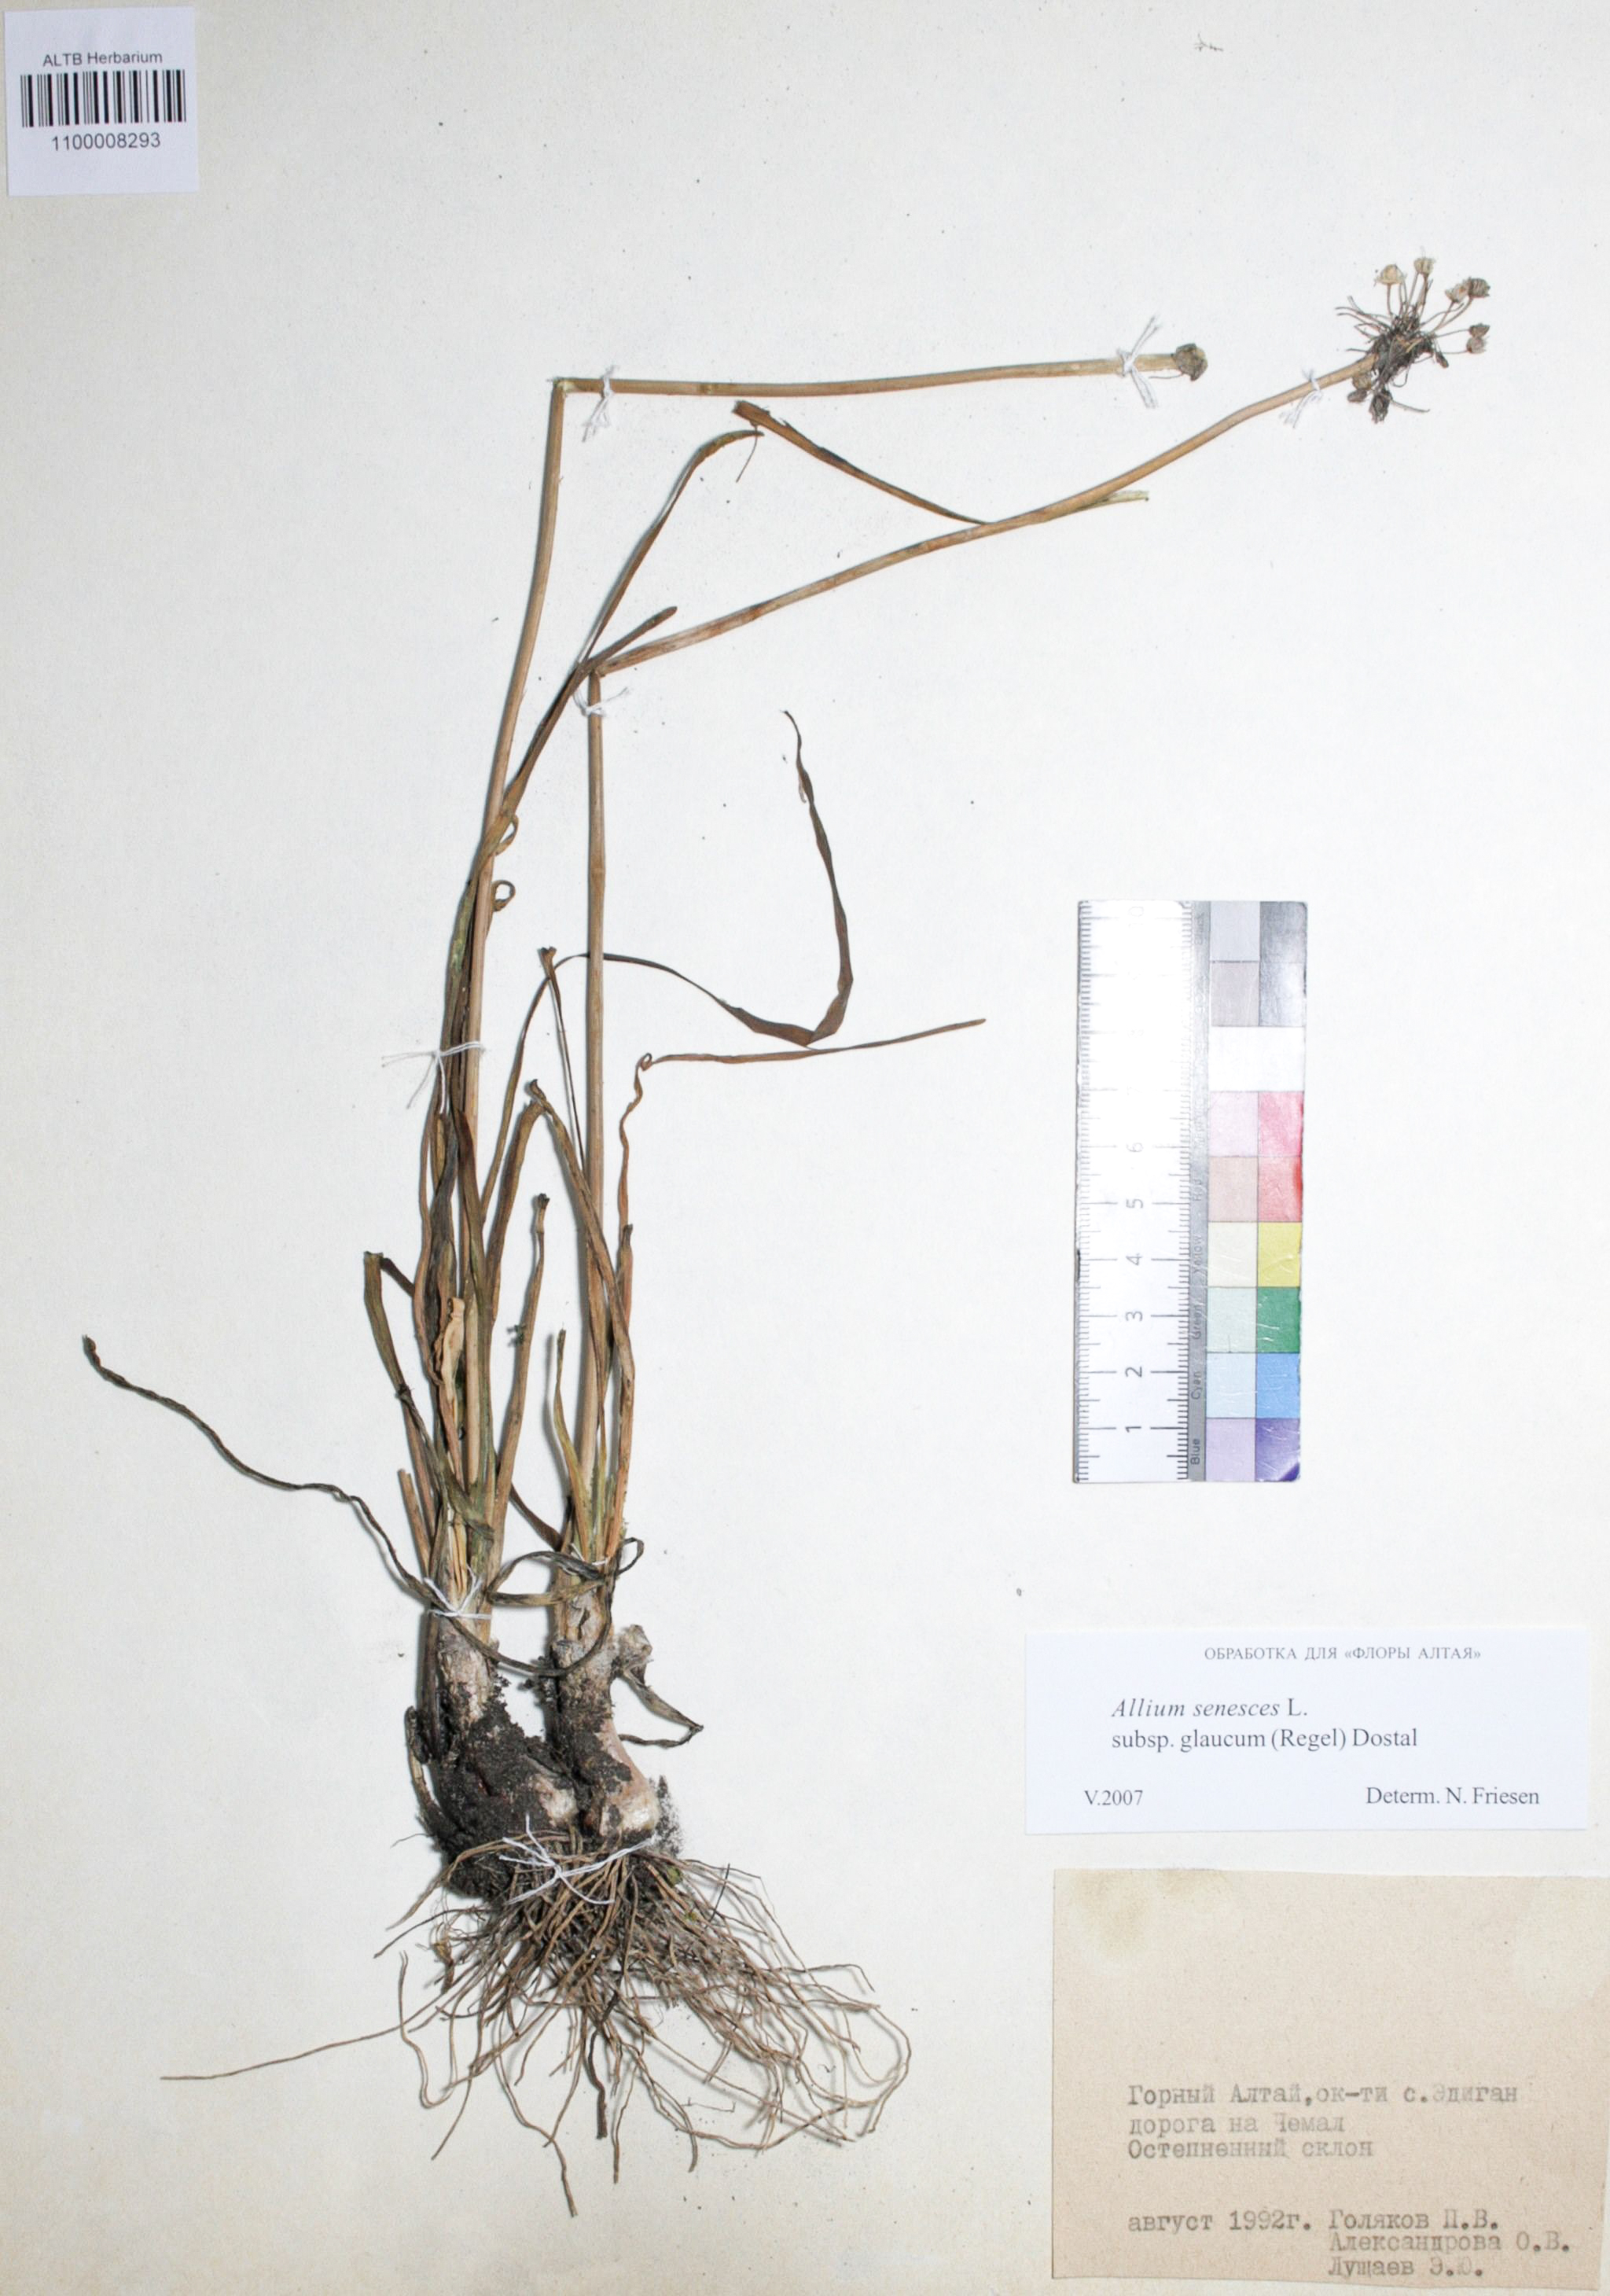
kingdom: Plantae
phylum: Tracheophyta
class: Liliopsida
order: Asparagales
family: Amaryllidaceae
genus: Allium
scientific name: Allium senescens
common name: German garlic
